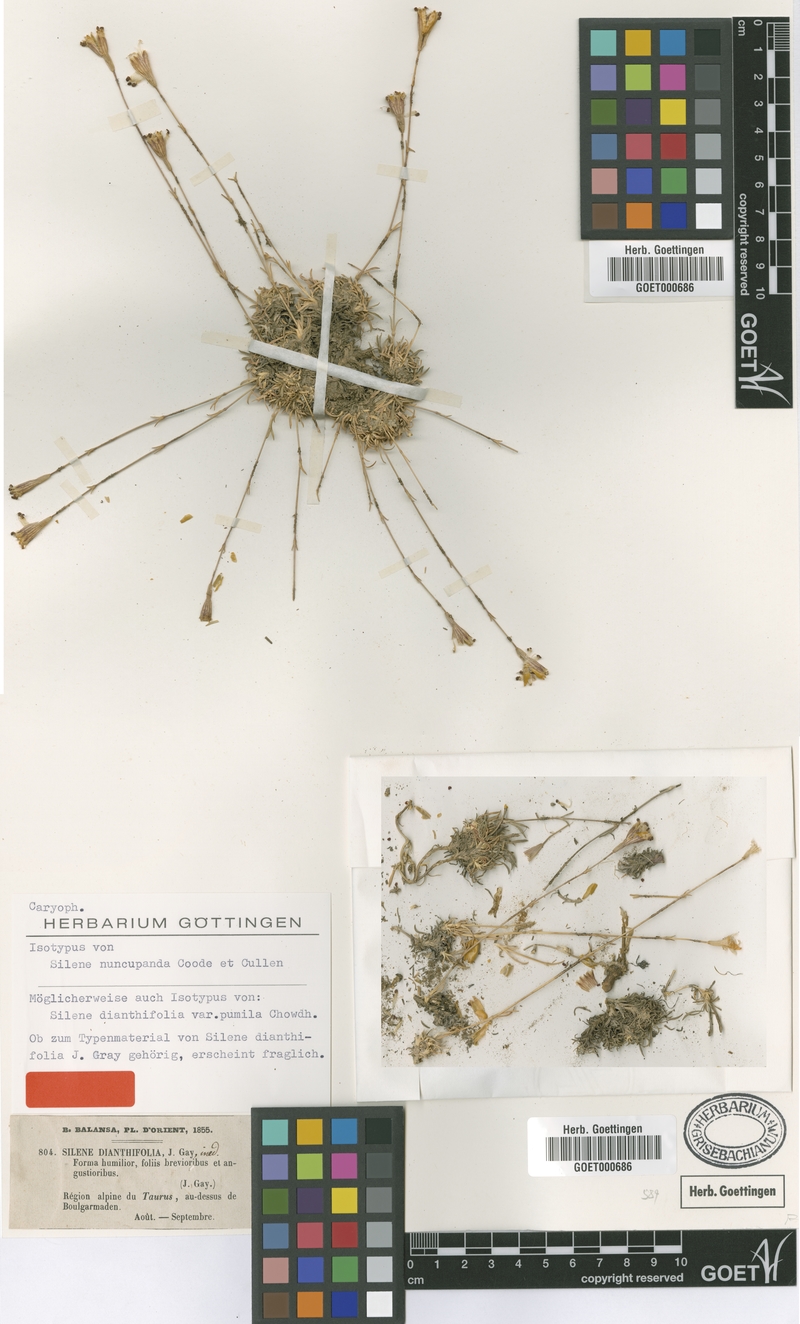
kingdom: Plantae
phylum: Tracheophyta
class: Magnoliopsida
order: Caryophyllales
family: Caryophyllaceae
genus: Silene
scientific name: Silene nuncupanda
